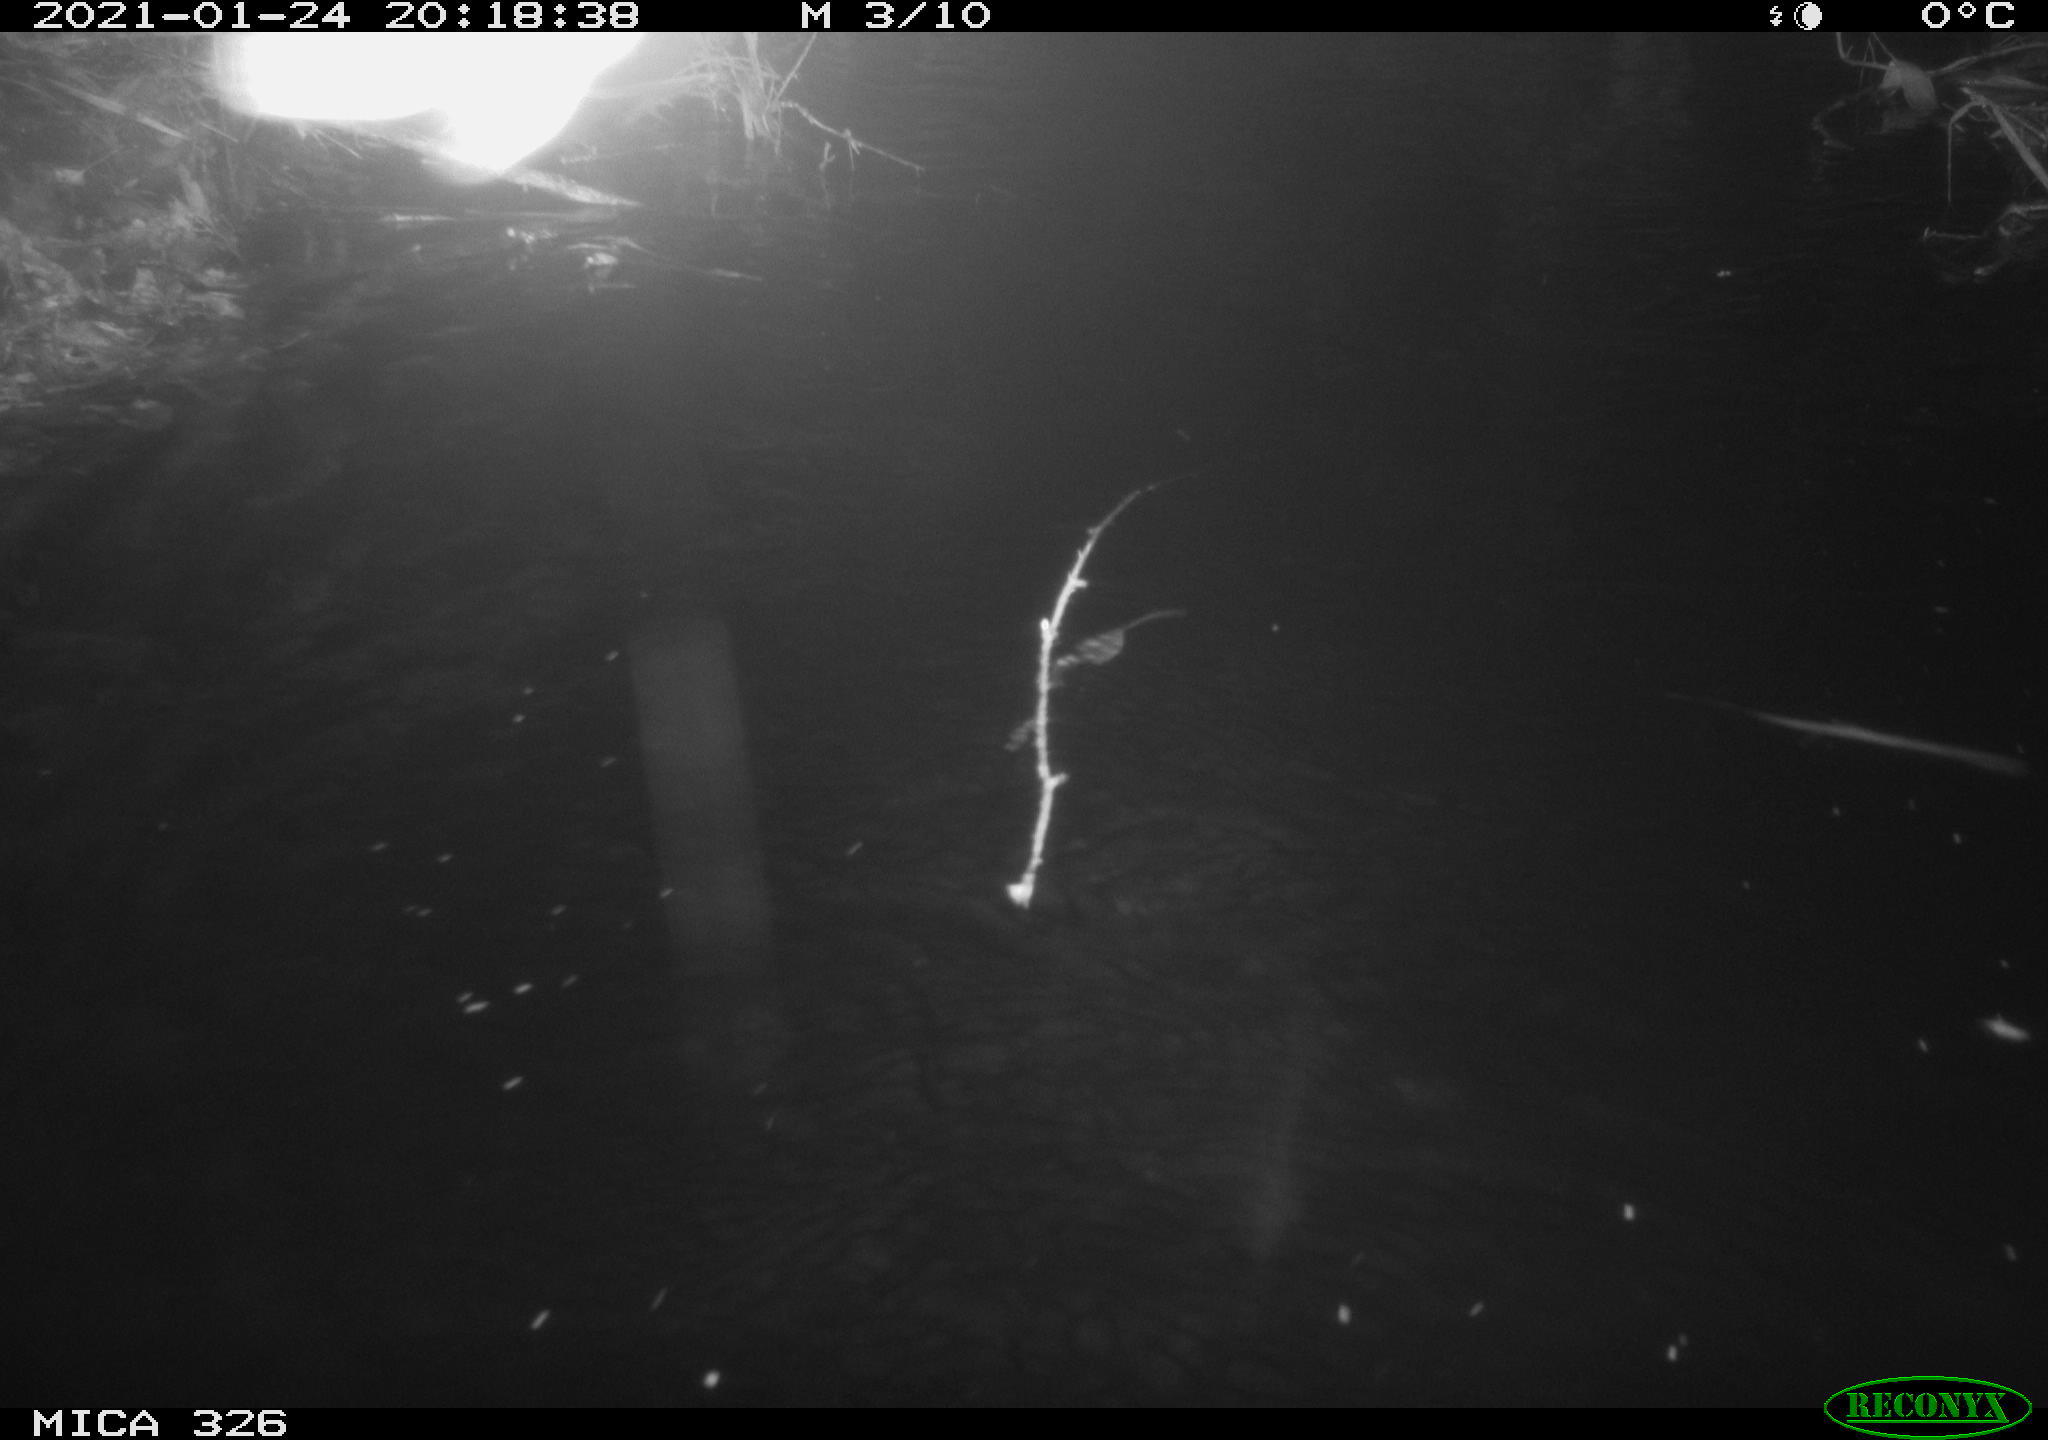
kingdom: Animalia
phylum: Chordata
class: Mammalia
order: Carnivora
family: Mustelidae
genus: Lutra
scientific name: Lutra lutra
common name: European otter
